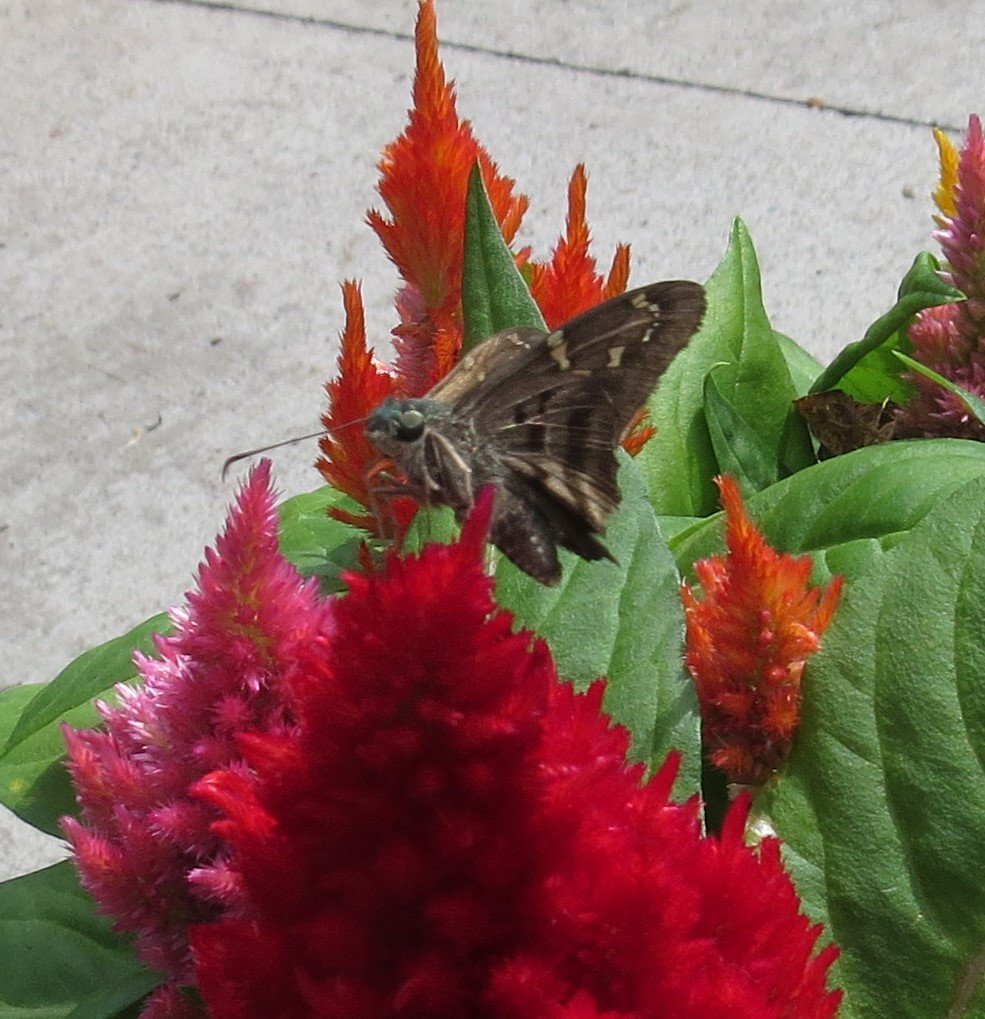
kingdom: Animalia
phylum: Arthropoda
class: Insecta
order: Lepidoptera
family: Hesperiidae
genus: Urbanus
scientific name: Urbanus proteus
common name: Long-tailed Skipper
